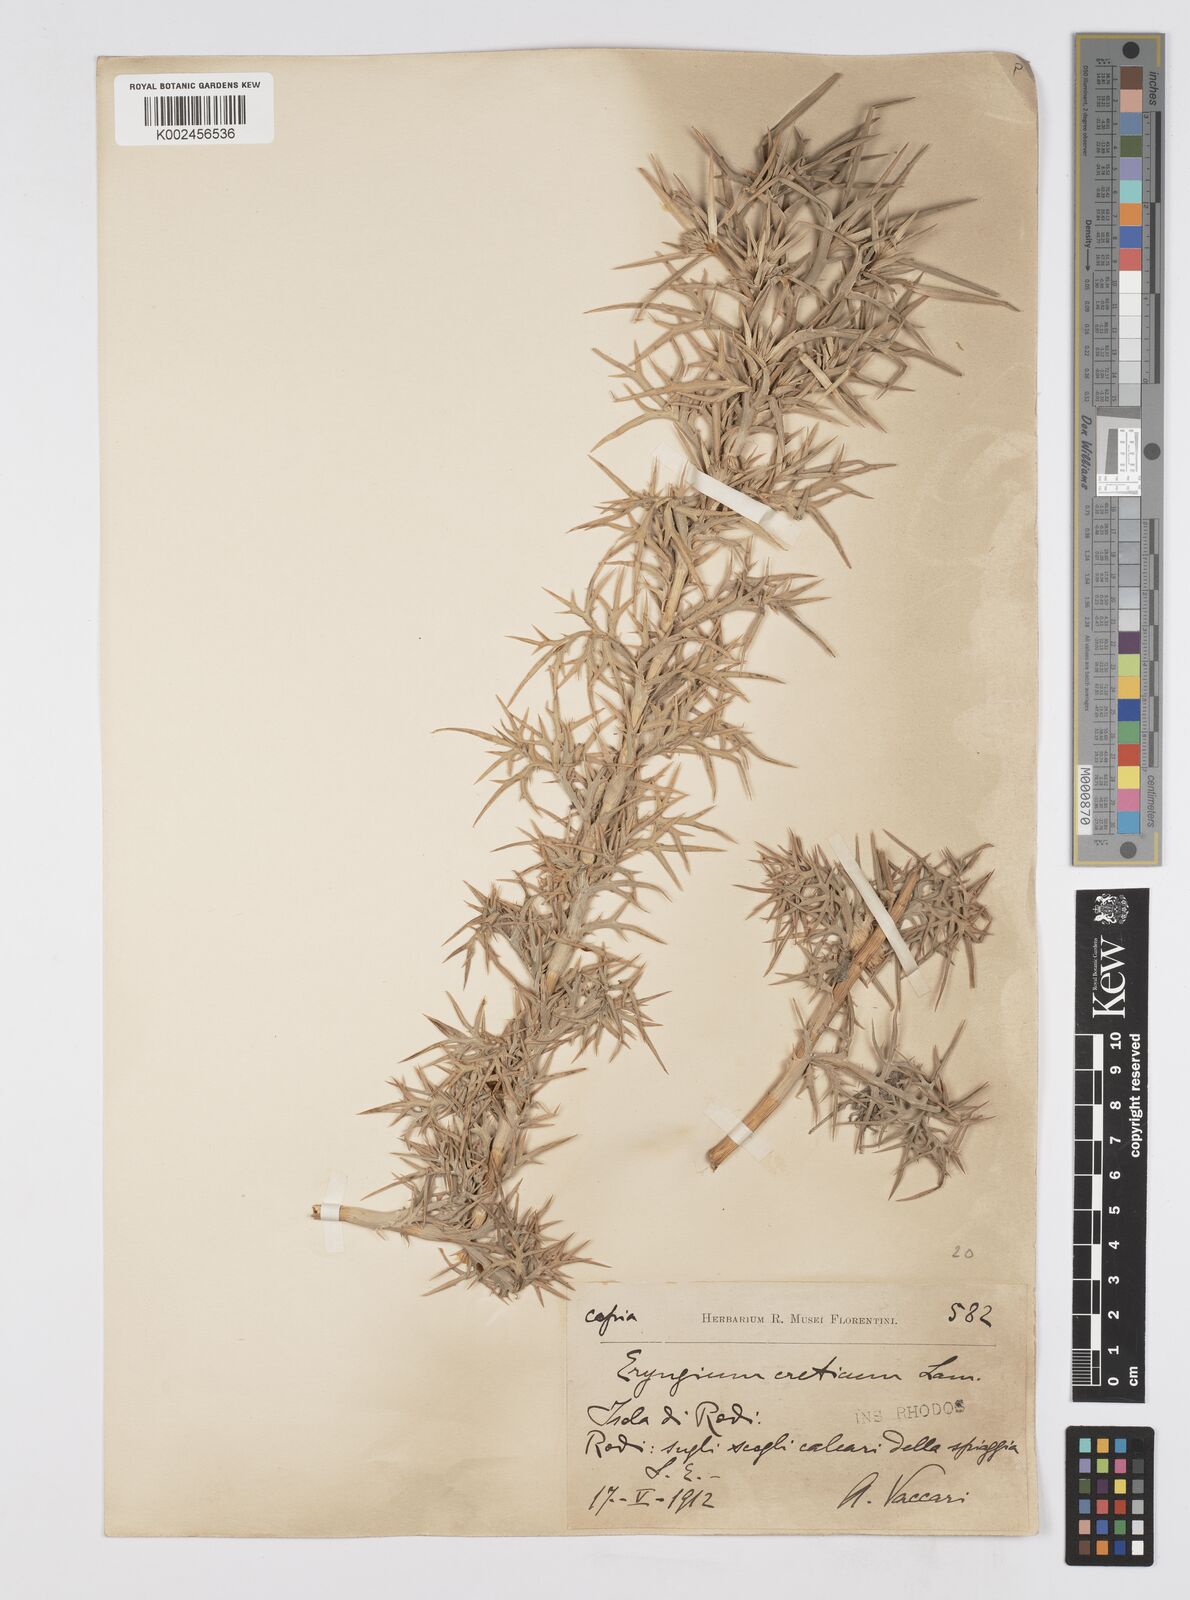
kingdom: Plantae
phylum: Tracheophyta
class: Magnoliopsida
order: Apiales
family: Apiaceae
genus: Eryngium
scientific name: Eryngium glomeratum
